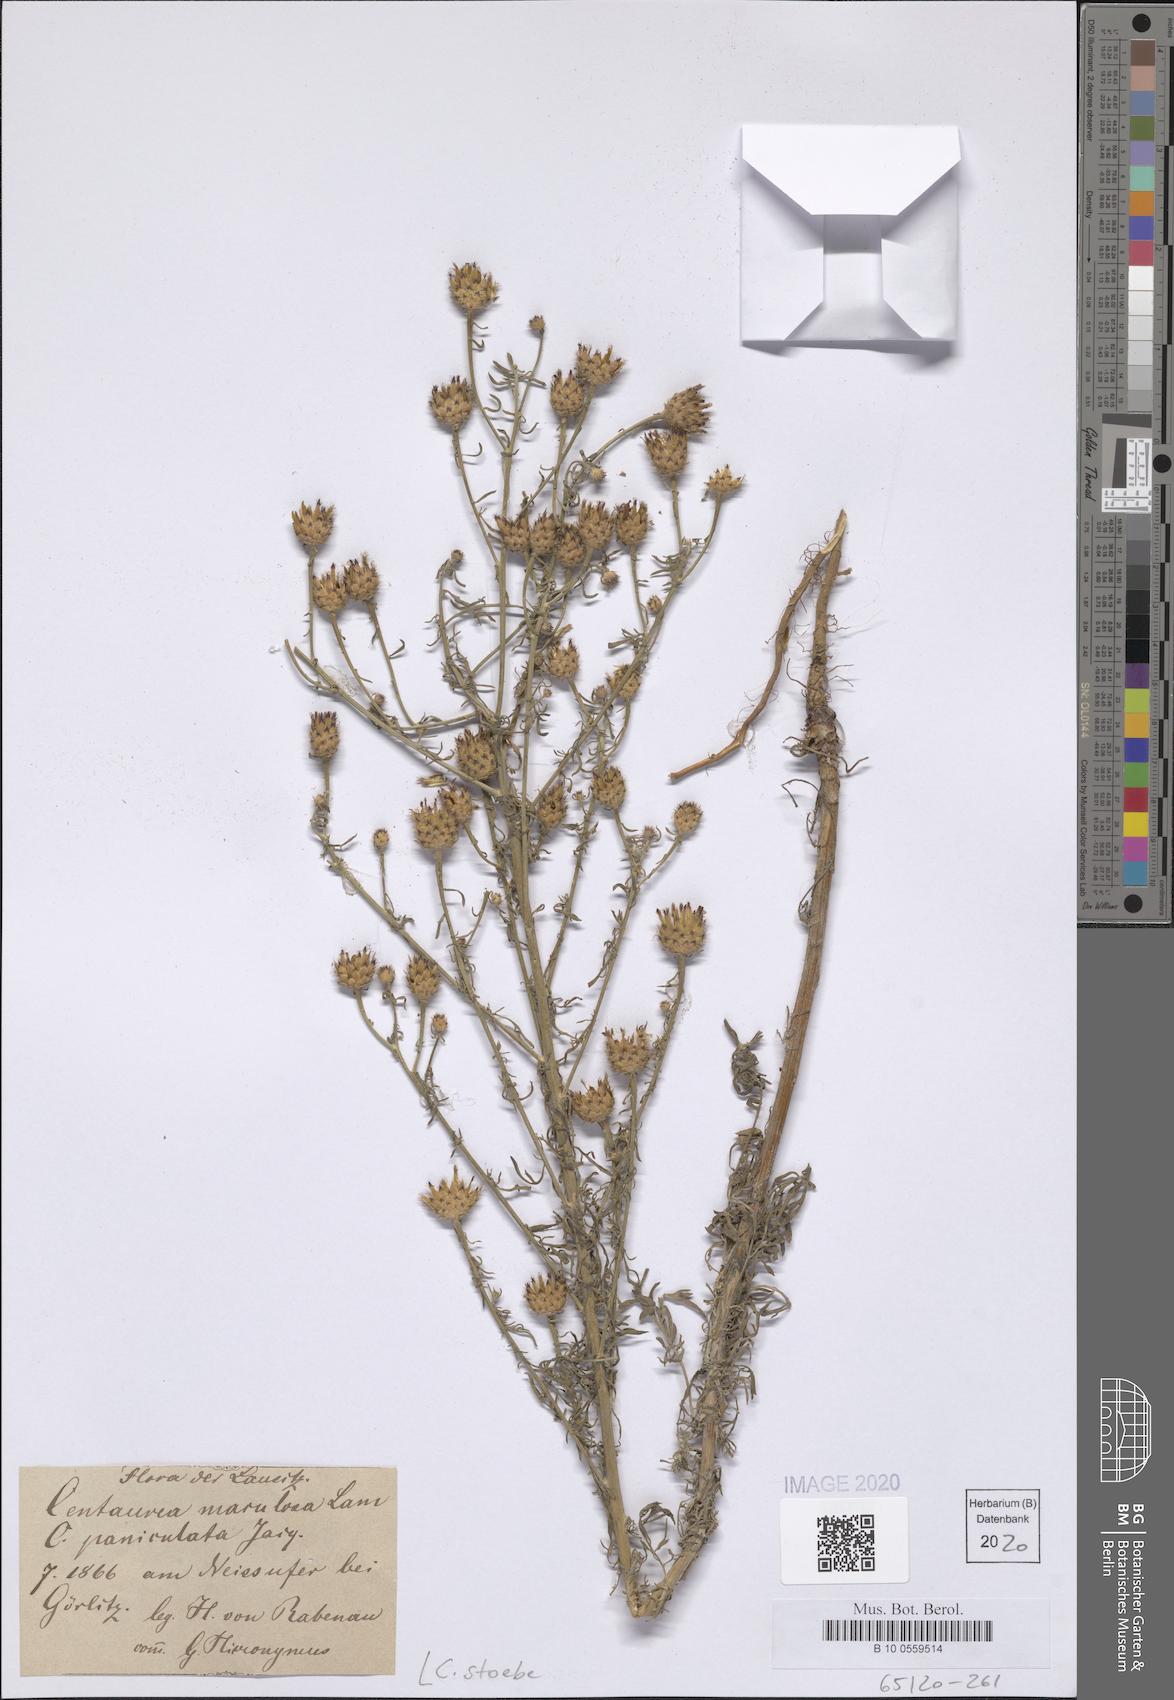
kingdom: Plantae
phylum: Tracheophyta
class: Magnoliopsida
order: Asterales
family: Asteraceae
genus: Centaurea
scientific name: Centaurea stoebe
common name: Spotted knapweed
